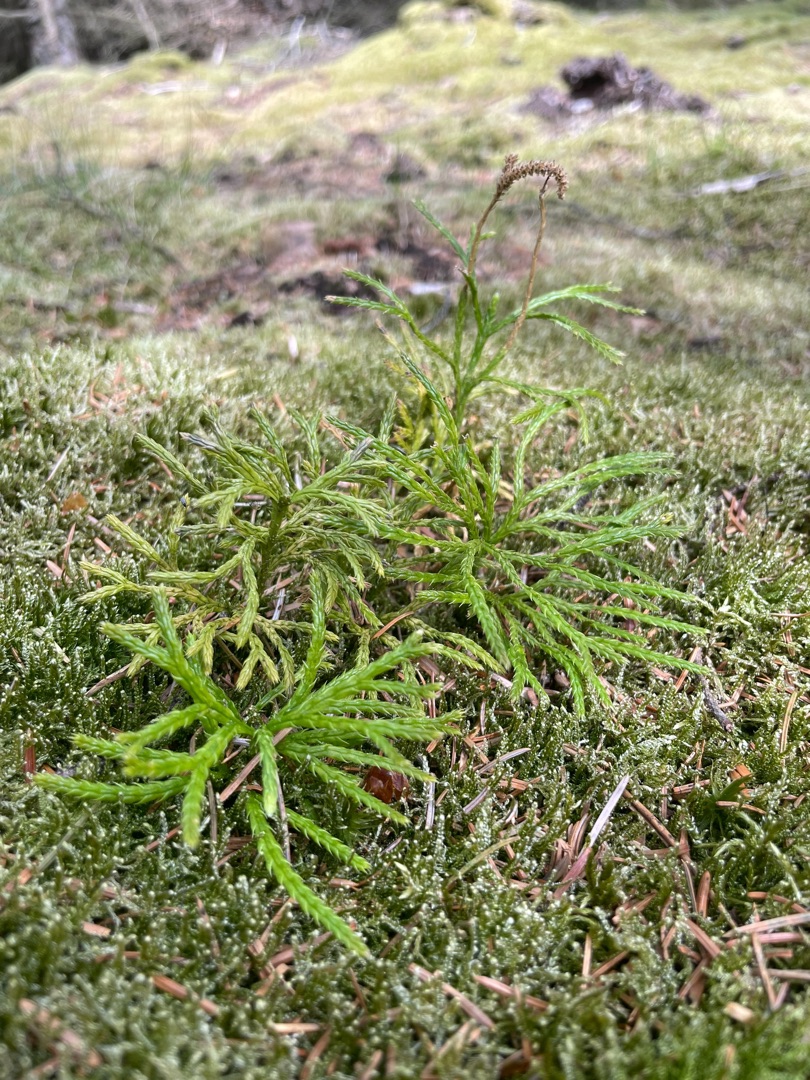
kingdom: Plantae
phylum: Tracheophyta
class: Lycopodiopsida
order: Lycopodiales
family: Lycopodiaceae
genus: Diphasiastrum
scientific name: Diphasiastrum complanatum
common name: Flad ulvefod
